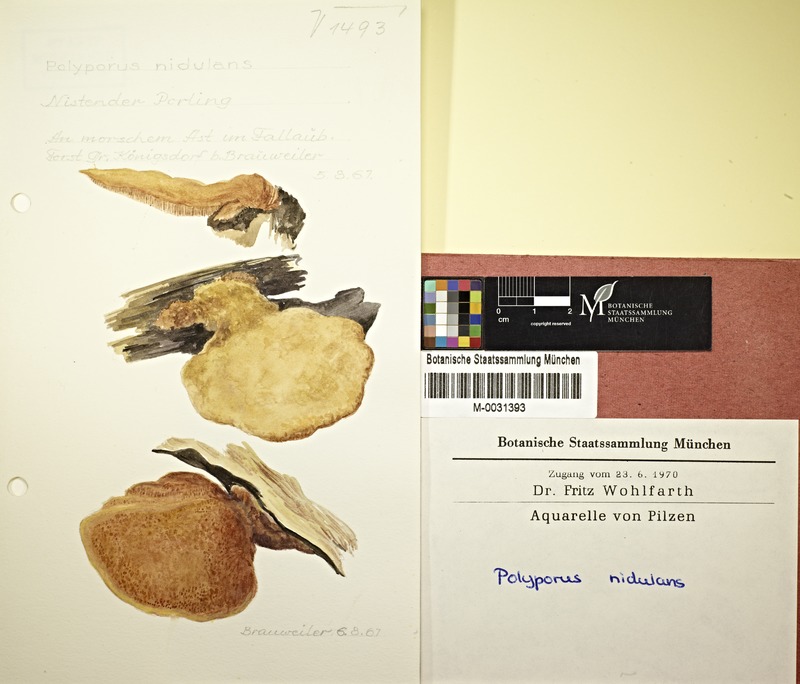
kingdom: Fungi
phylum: Basidiomycota
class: Agaricomycetes
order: Polyporales
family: Phanerochaetaceae
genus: Hapalopilus
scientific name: Hapalopilus rutilans
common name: Tender nesting polypore
